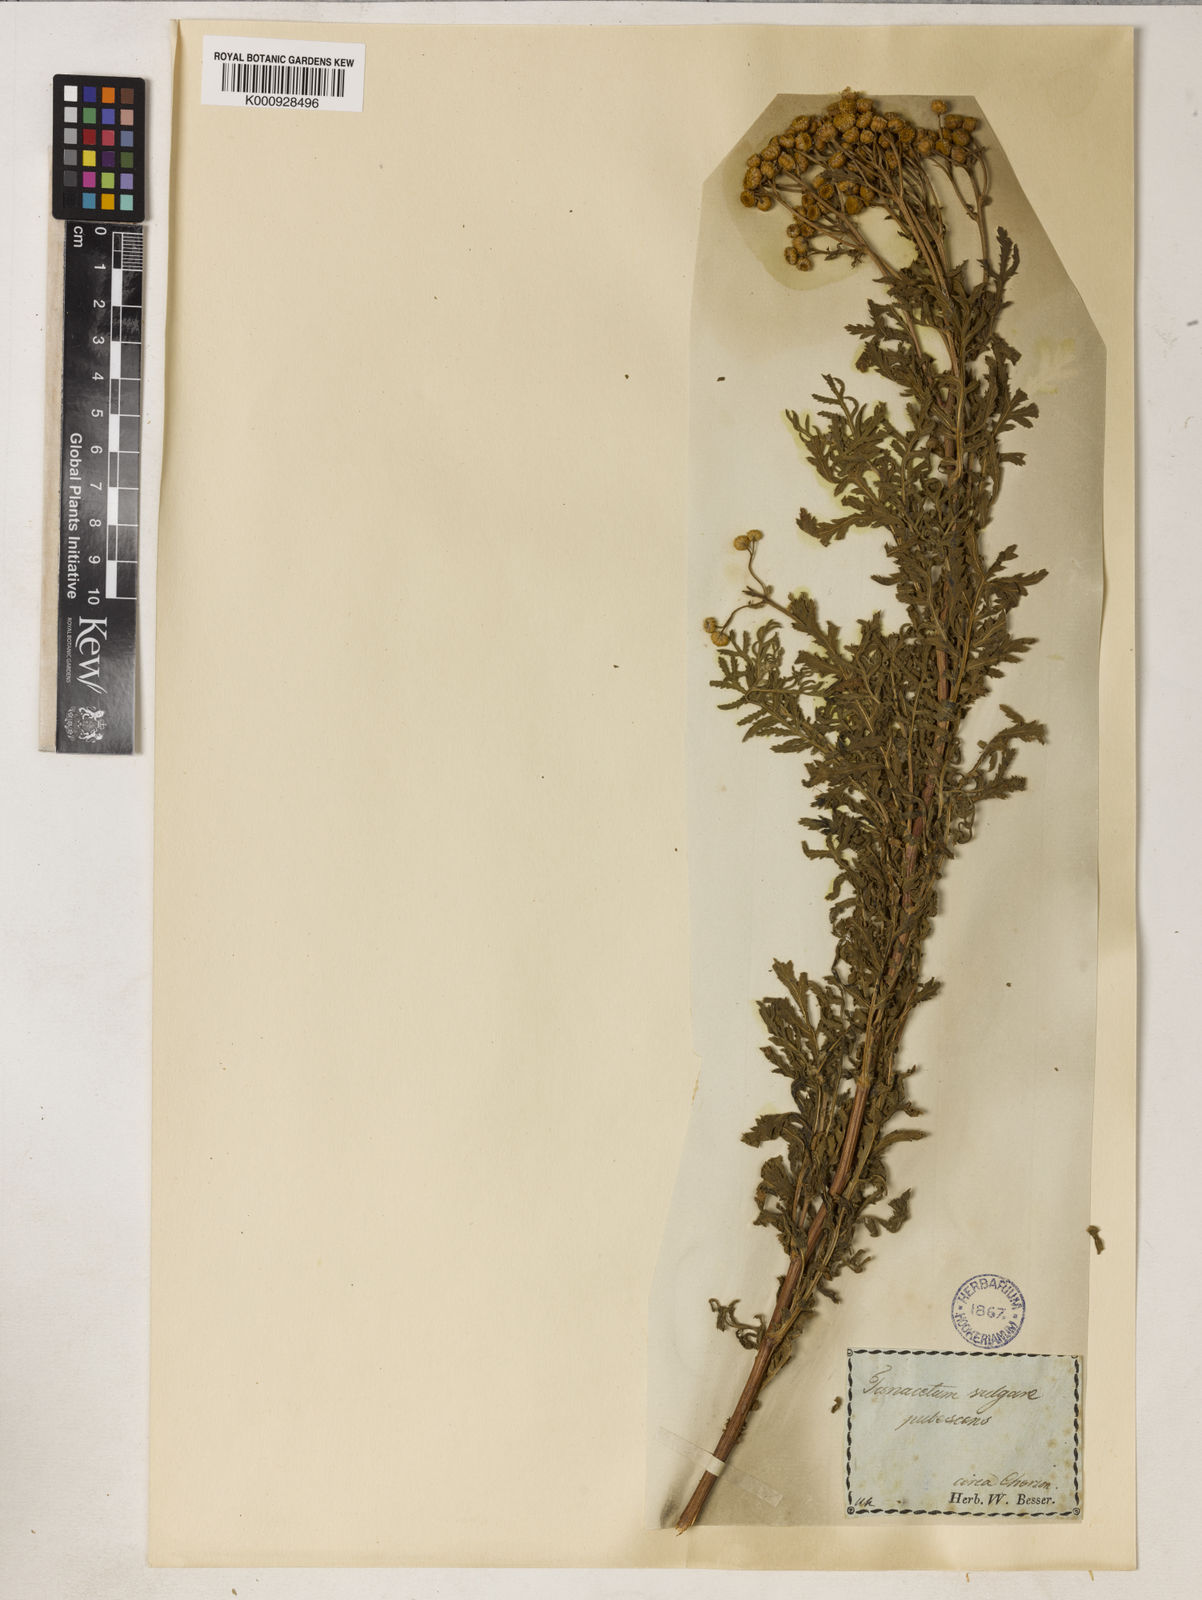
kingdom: Plantae
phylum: Tracheophyta
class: Magnoliopsida
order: Asterales
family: Asteraceae
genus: Tanacetum
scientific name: Tanacetum vulgare
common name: Common tansy
